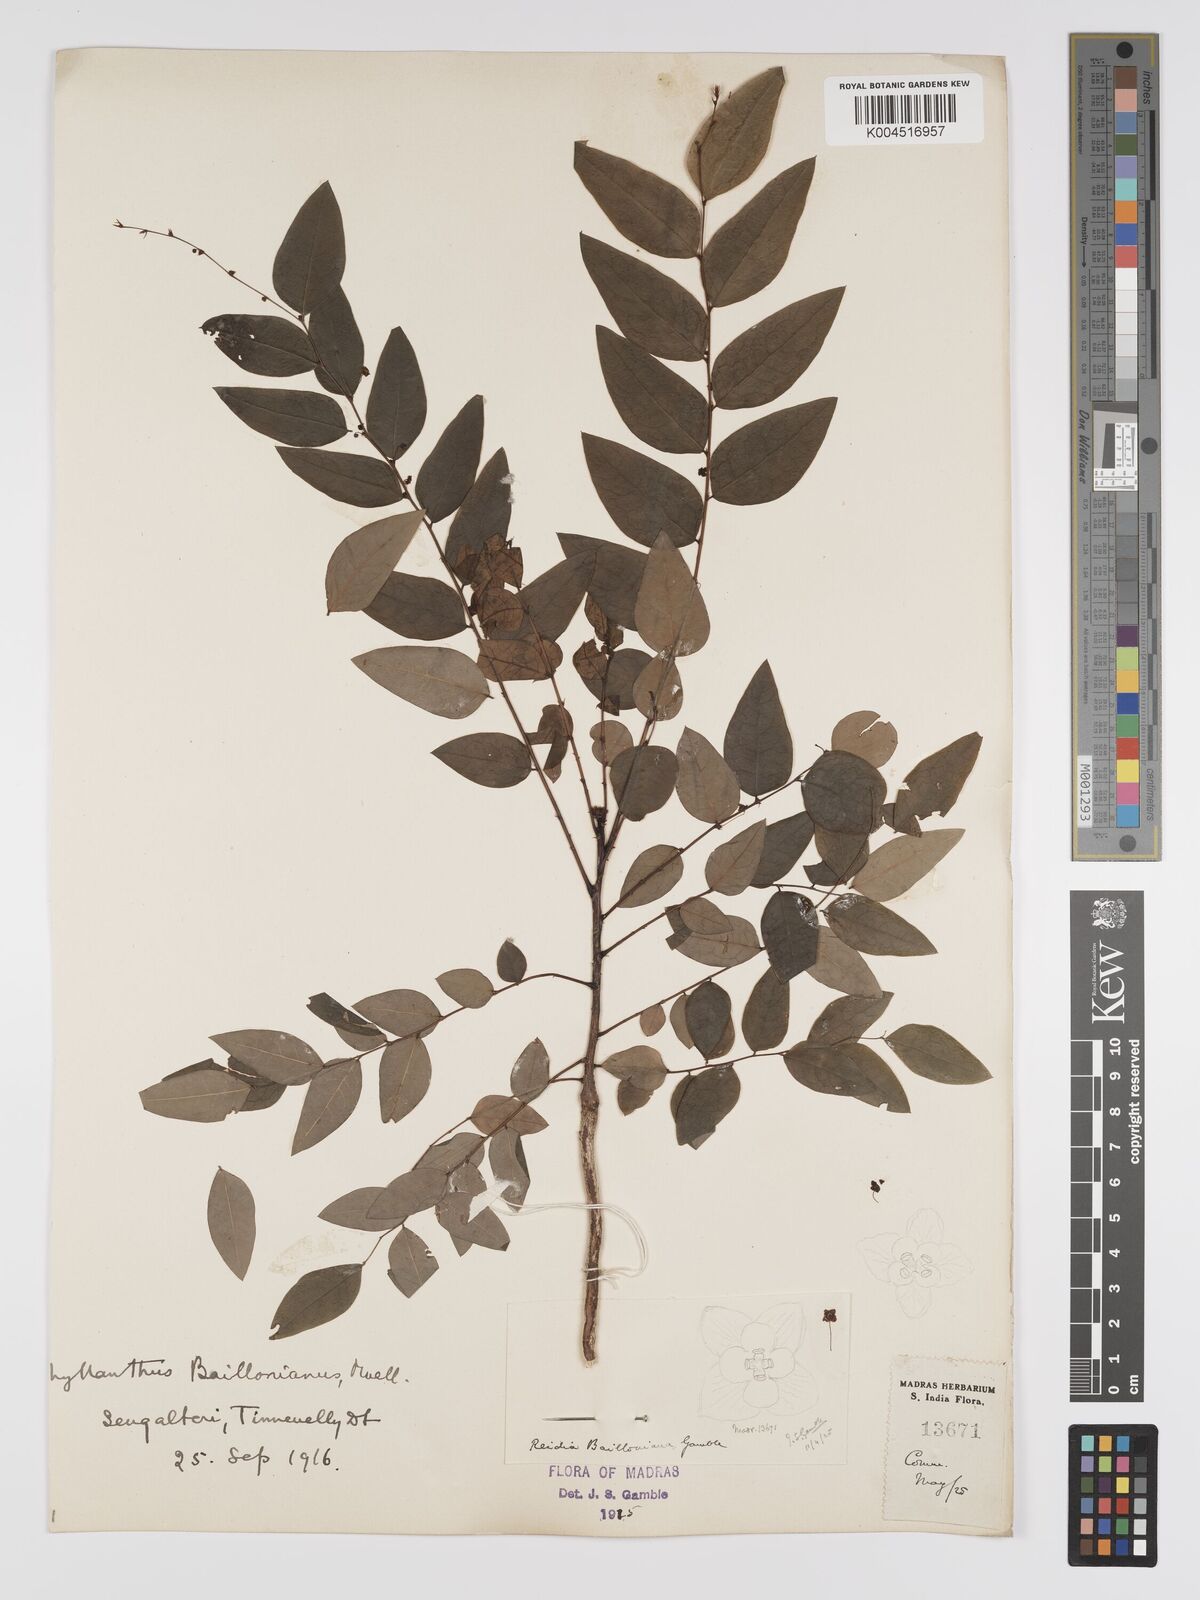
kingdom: Plantae
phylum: Tracheophyta
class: Magnoliopsida
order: Malpighiales
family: Phyllanthaceae
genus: Phyllanthus
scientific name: Phyllanthus baillonianus
